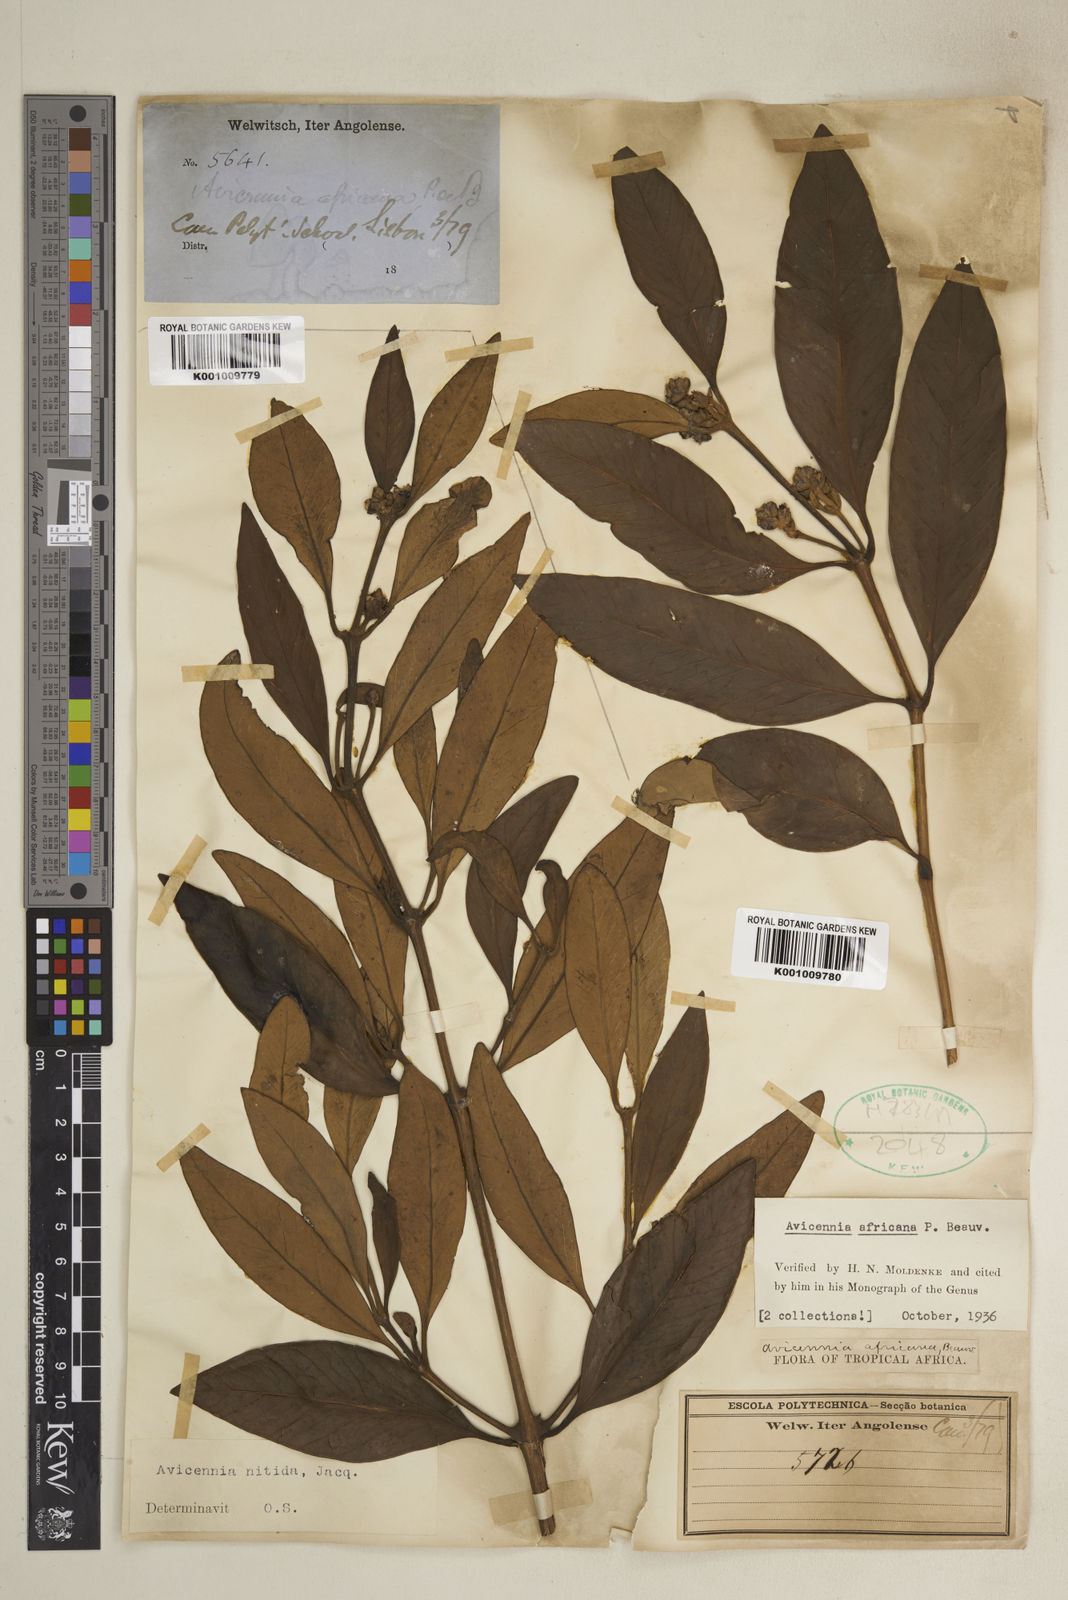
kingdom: Plantae
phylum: Tracheophyta
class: Magnoliopsida
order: Lamiales
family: Acanthaceae
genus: Avicennia
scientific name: Avicennia germinans
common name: Black mangrove
